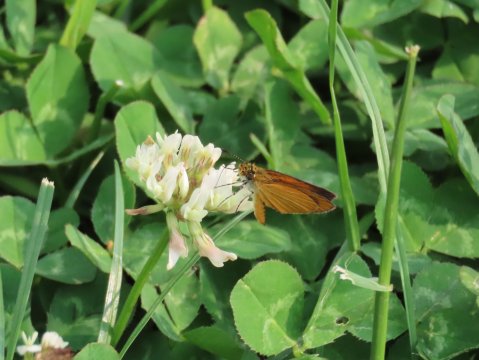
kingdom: Animalia
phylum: Arthropoda
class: Insecta
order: Lepidoptera
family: Hesperiidae
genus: Ancyloxypha
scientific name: Ancyloxypha numitor
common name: Least Skipper
